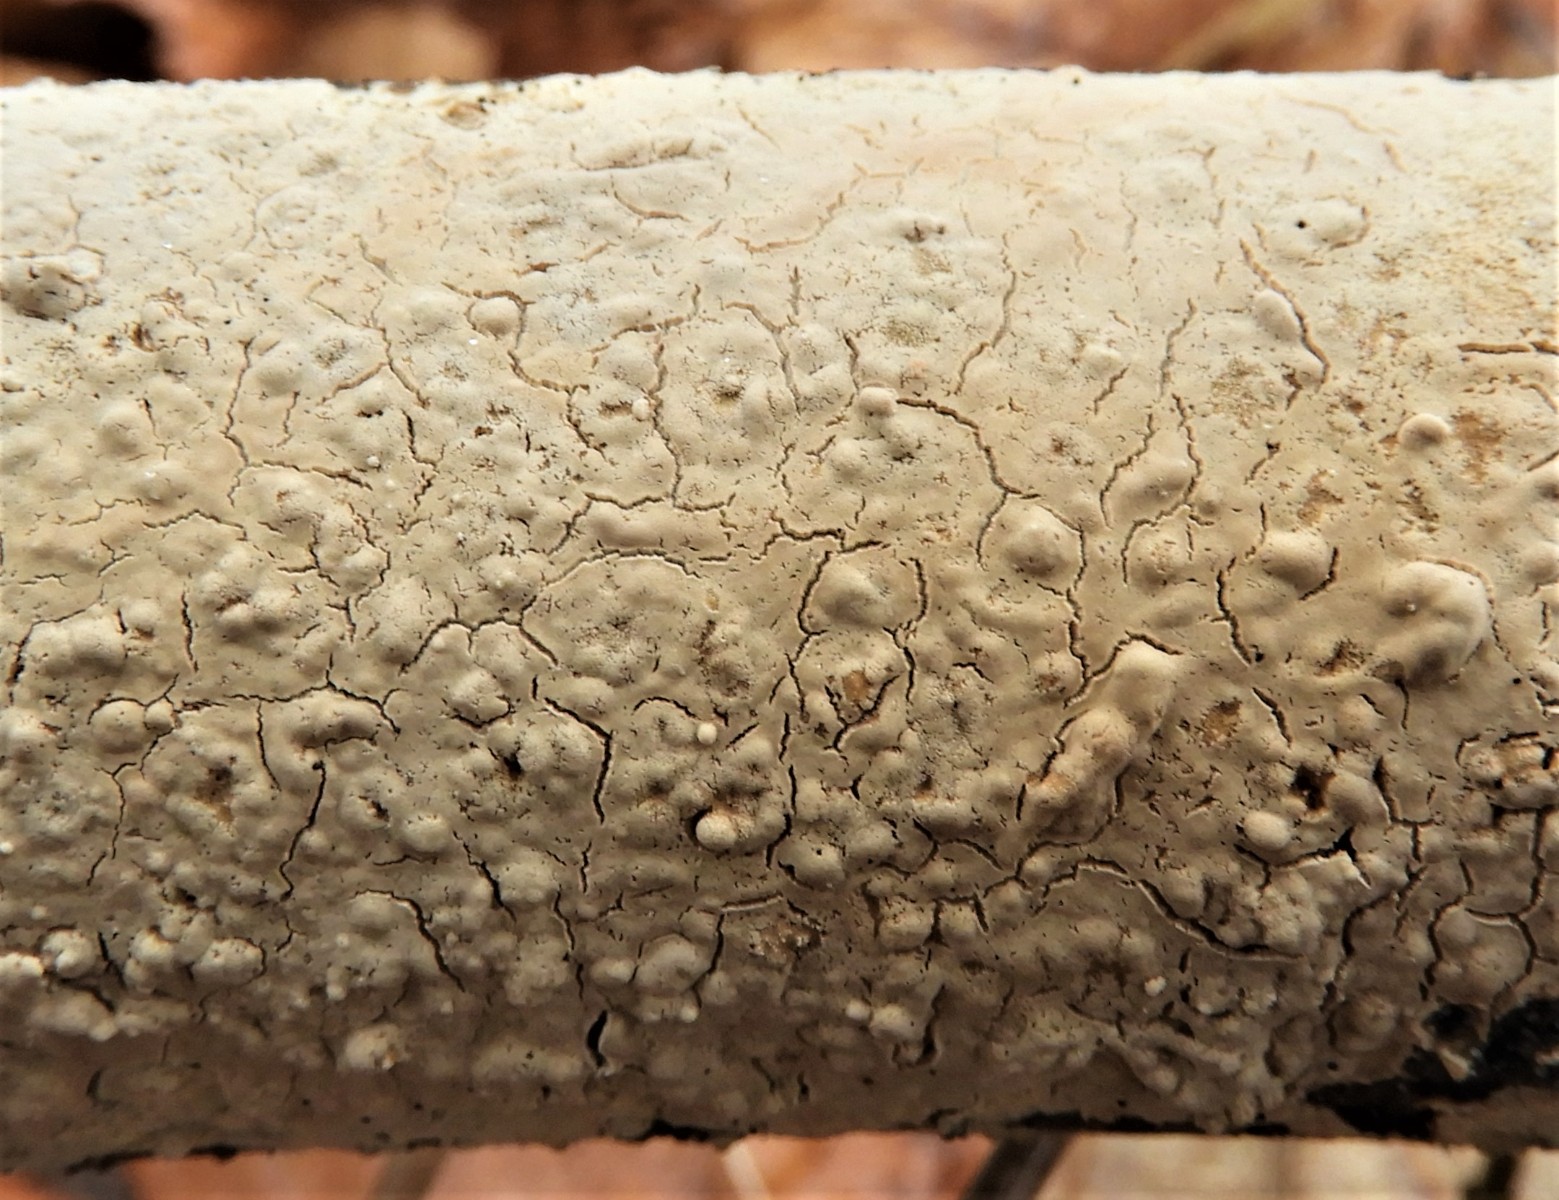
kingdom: Fungi
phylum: Basidiomycota
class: Agaricomycetes
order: Agaricales
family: Physalacriaceae
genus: Cylindrobasidium
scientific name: Cylindrobasidium evolvens
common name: sprækkehinde
